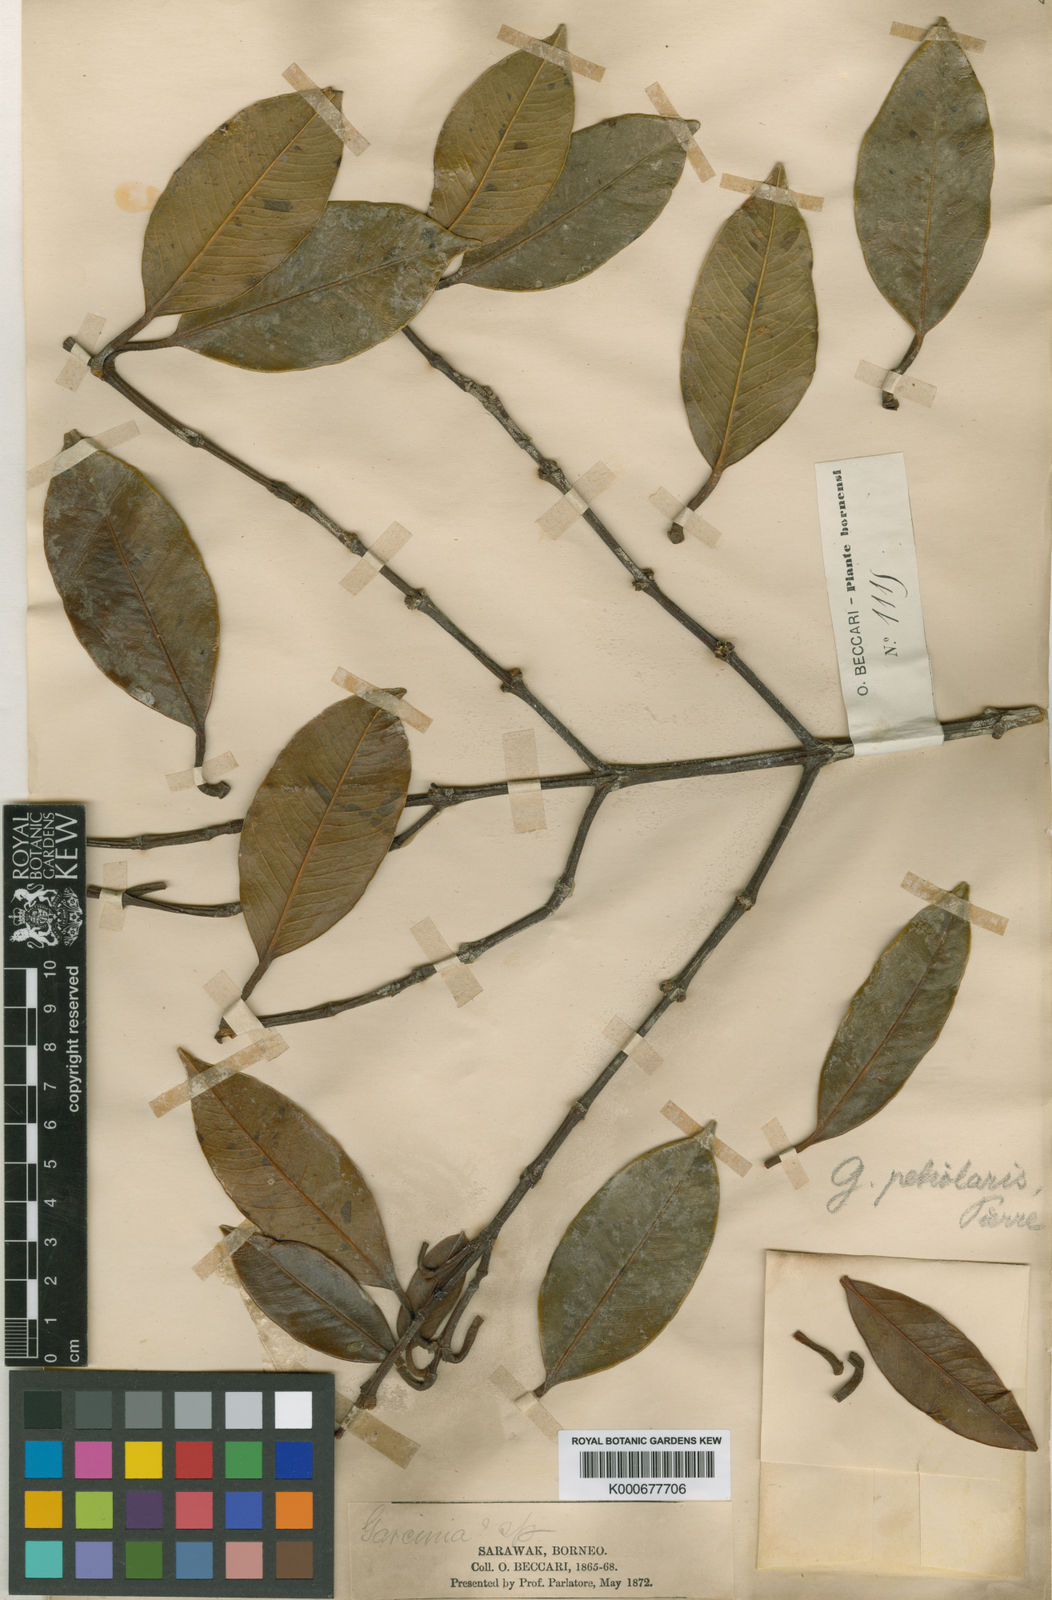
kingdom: Plantae
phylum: Tracheophyta
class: Magnoliopsida
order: Malpighiales
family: Clusiaceae
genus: Garcinia
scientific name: Garcinia petiolaris
